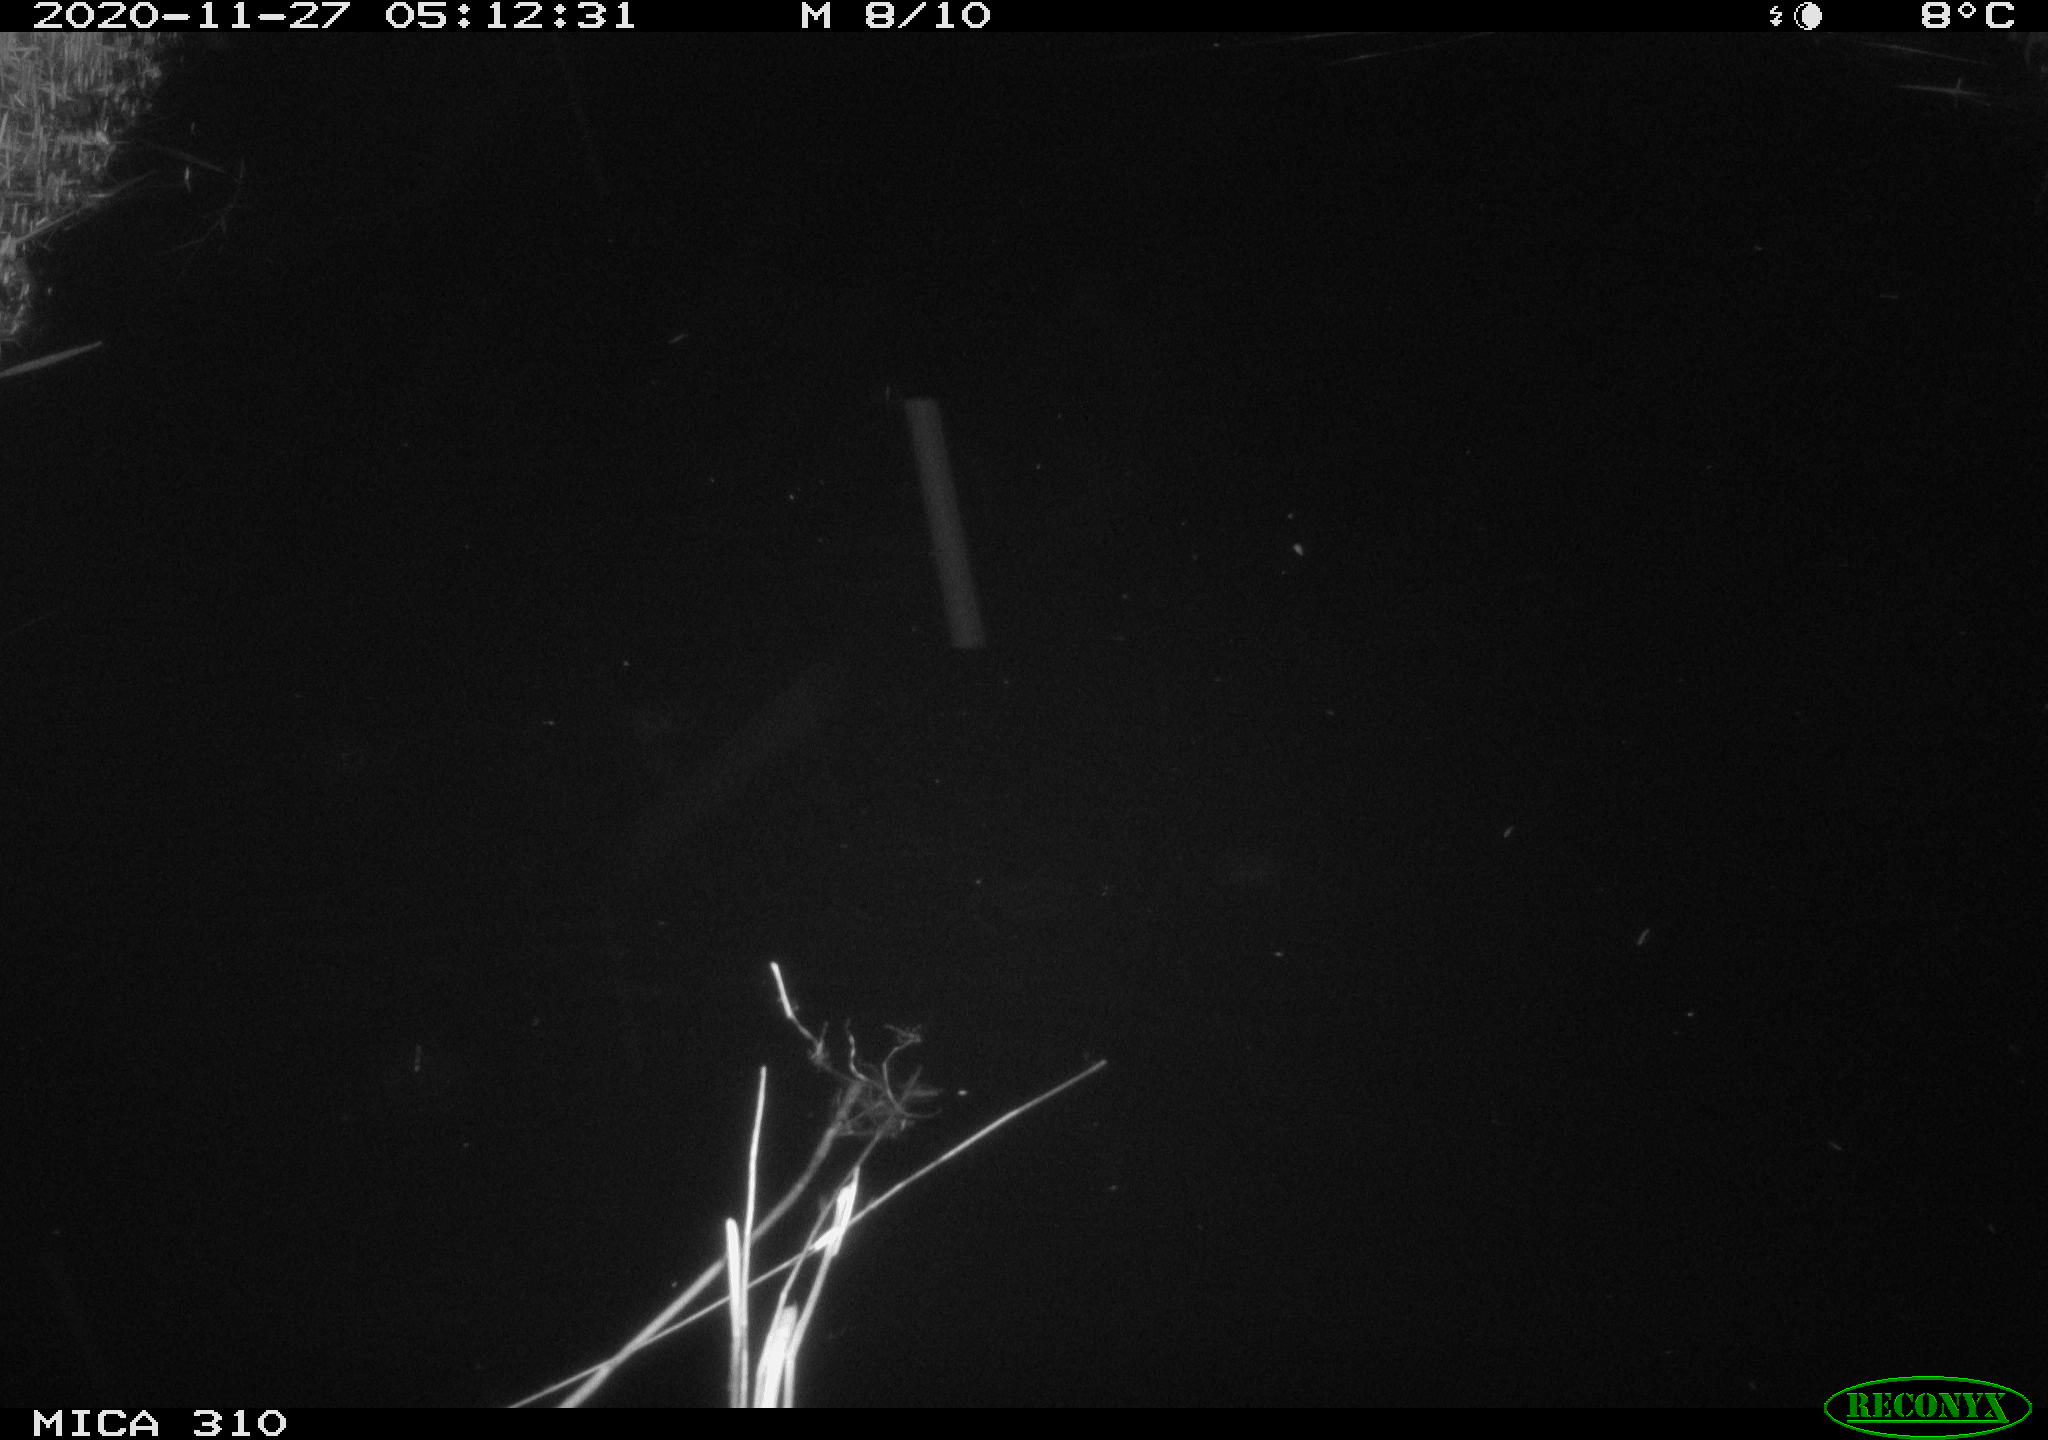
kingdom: Animalia
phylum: Chordata
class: Mammalia
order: Rodentia
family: Muridae
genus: Rattus
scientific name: Rattus norvegicus
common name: Brown rat
